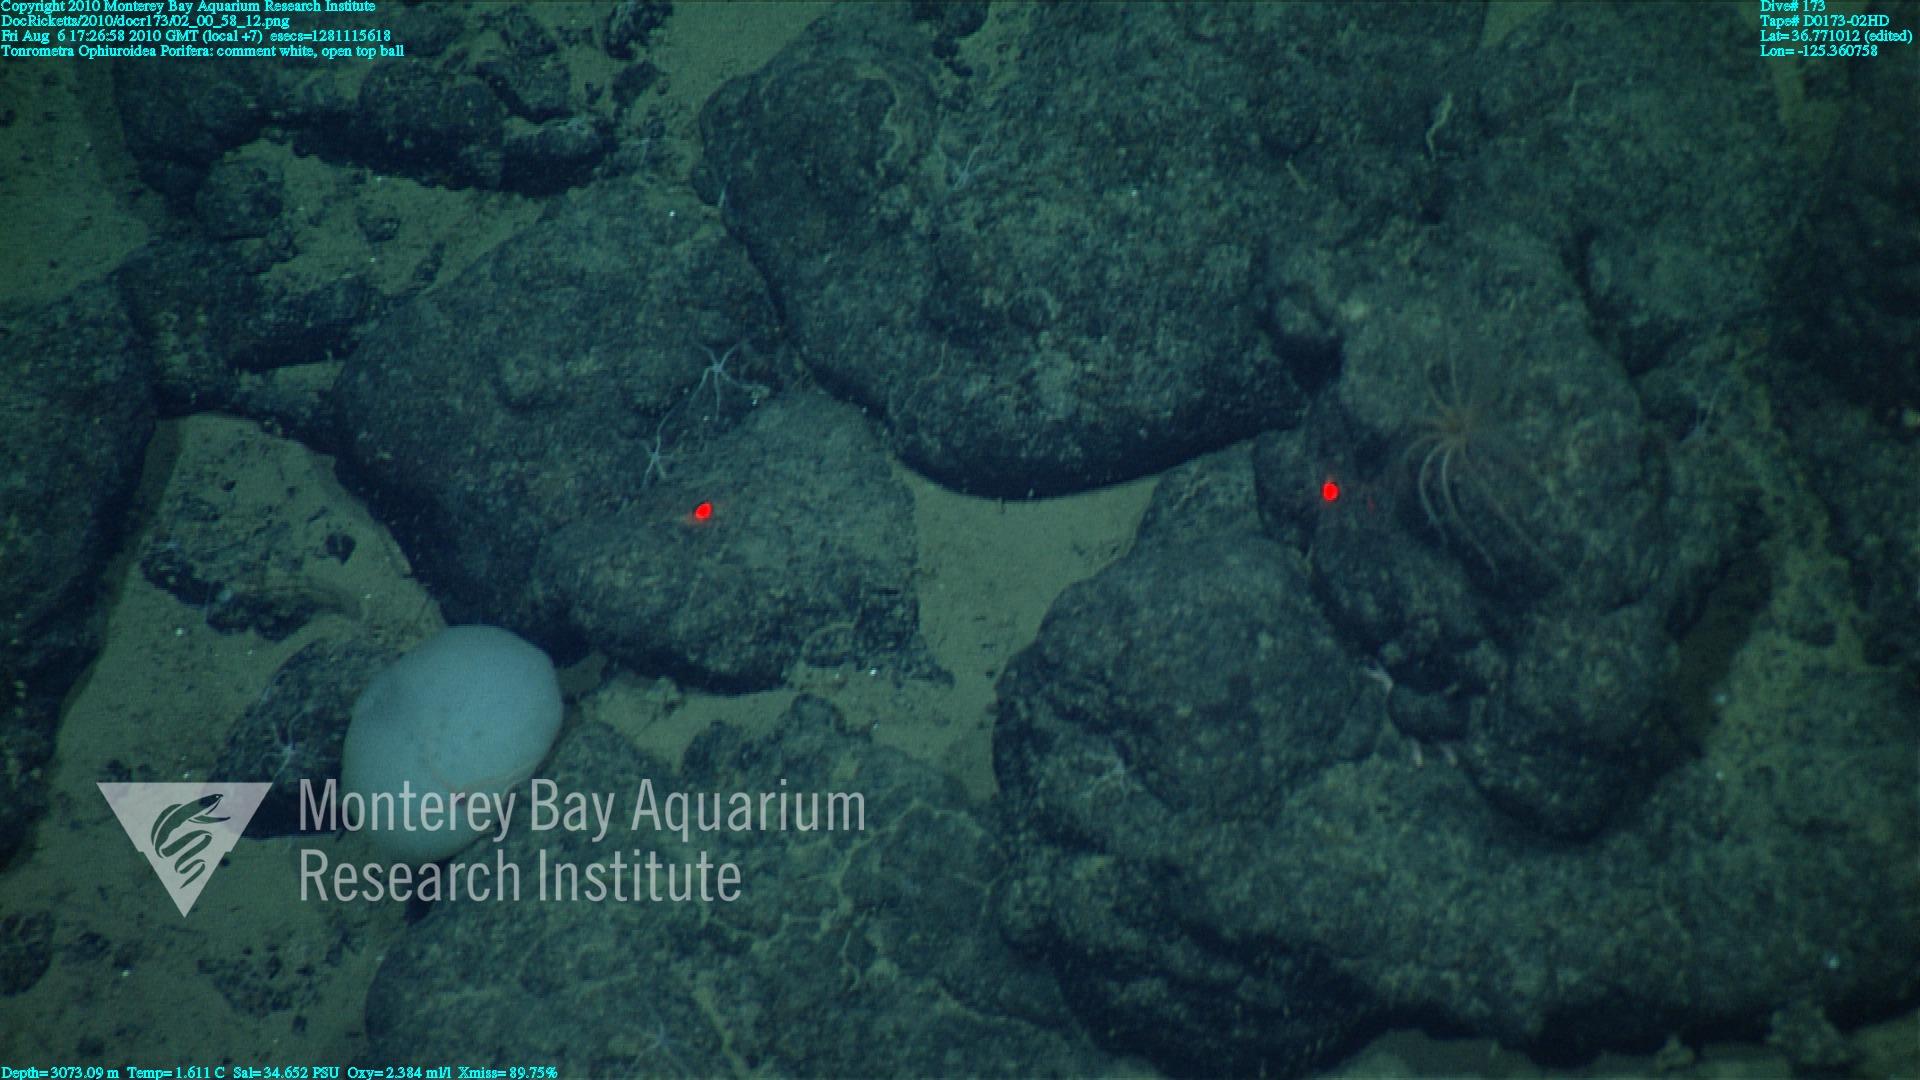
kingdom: Animalia
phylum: Porifera
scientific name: Porifera
